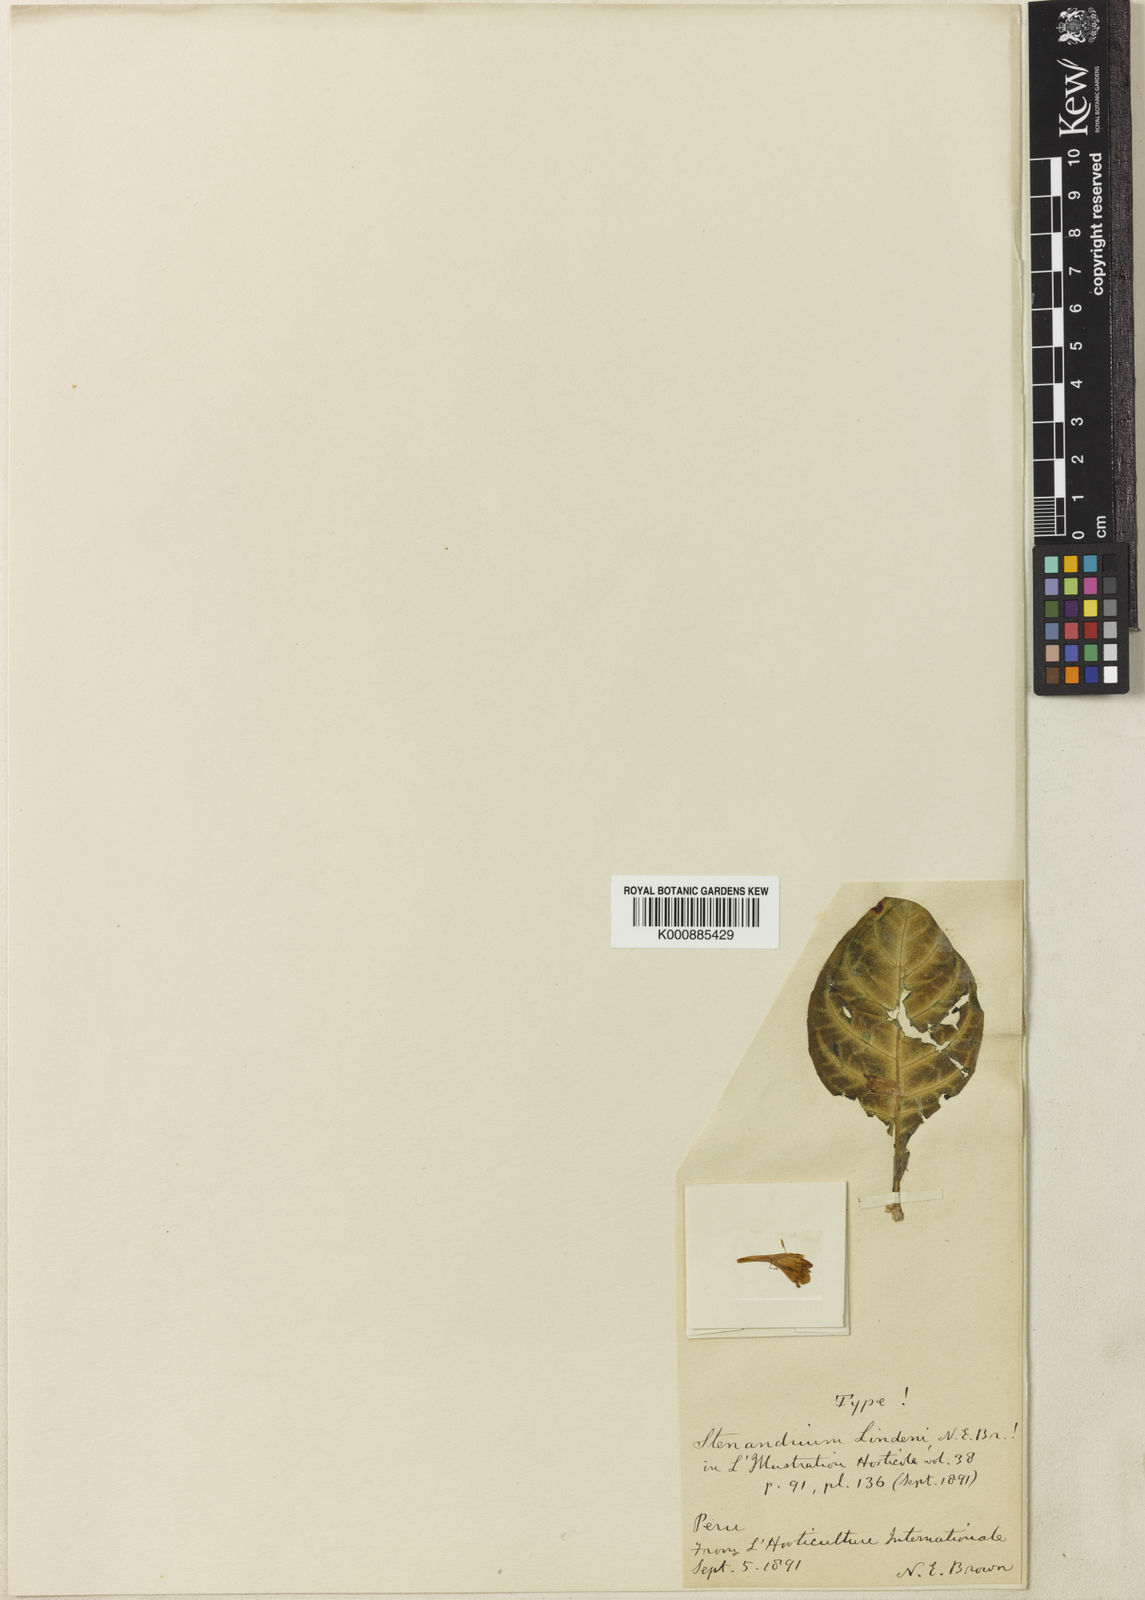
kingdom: Plantae
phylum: Tracheophyta
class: Magnoliopsida
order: Lamiales
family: Acanthaceae
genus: Aphelandra
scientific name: Aphelandra maculata
